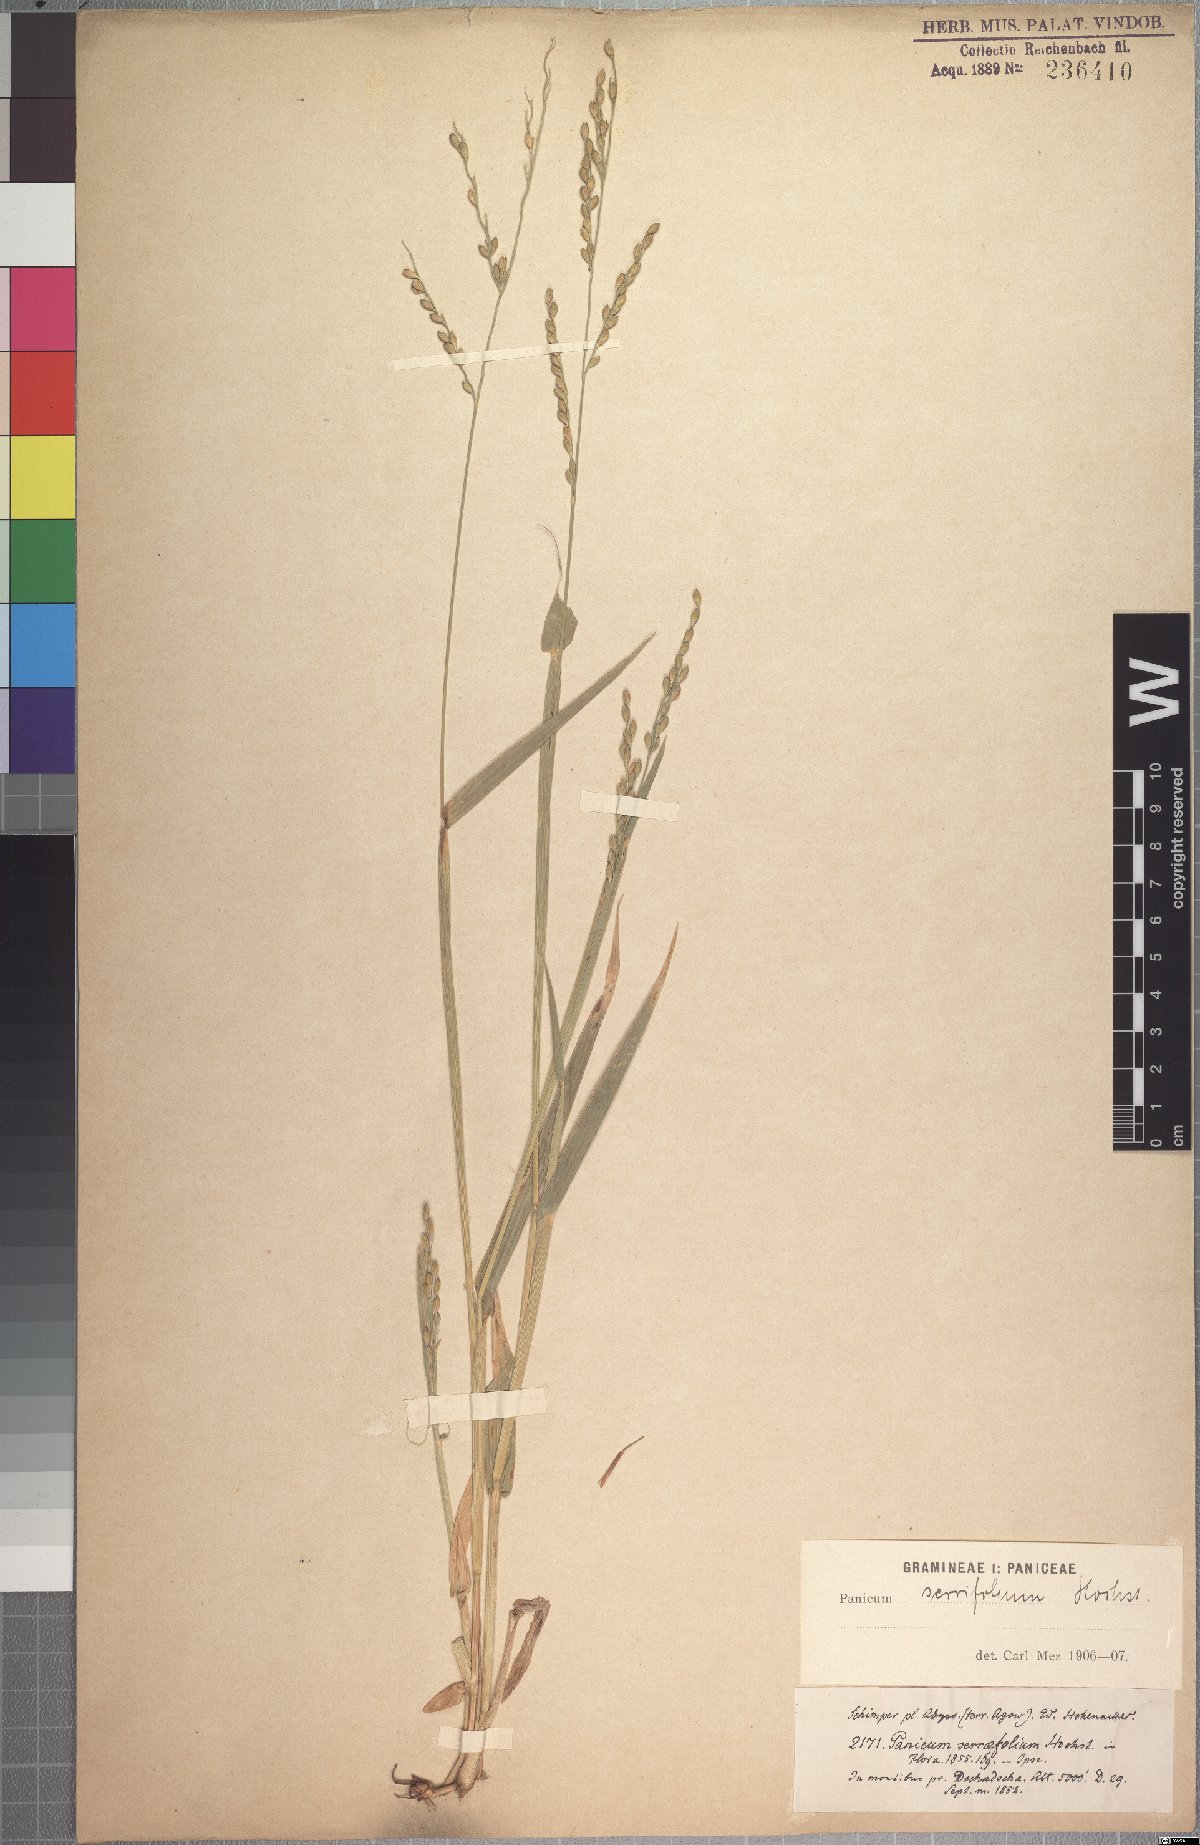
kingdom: Plantae
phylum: Tracheophyta
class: Liliopsida
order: Poales
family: Poaceae
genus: Urochloa
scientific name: Urochloa serrifolia
